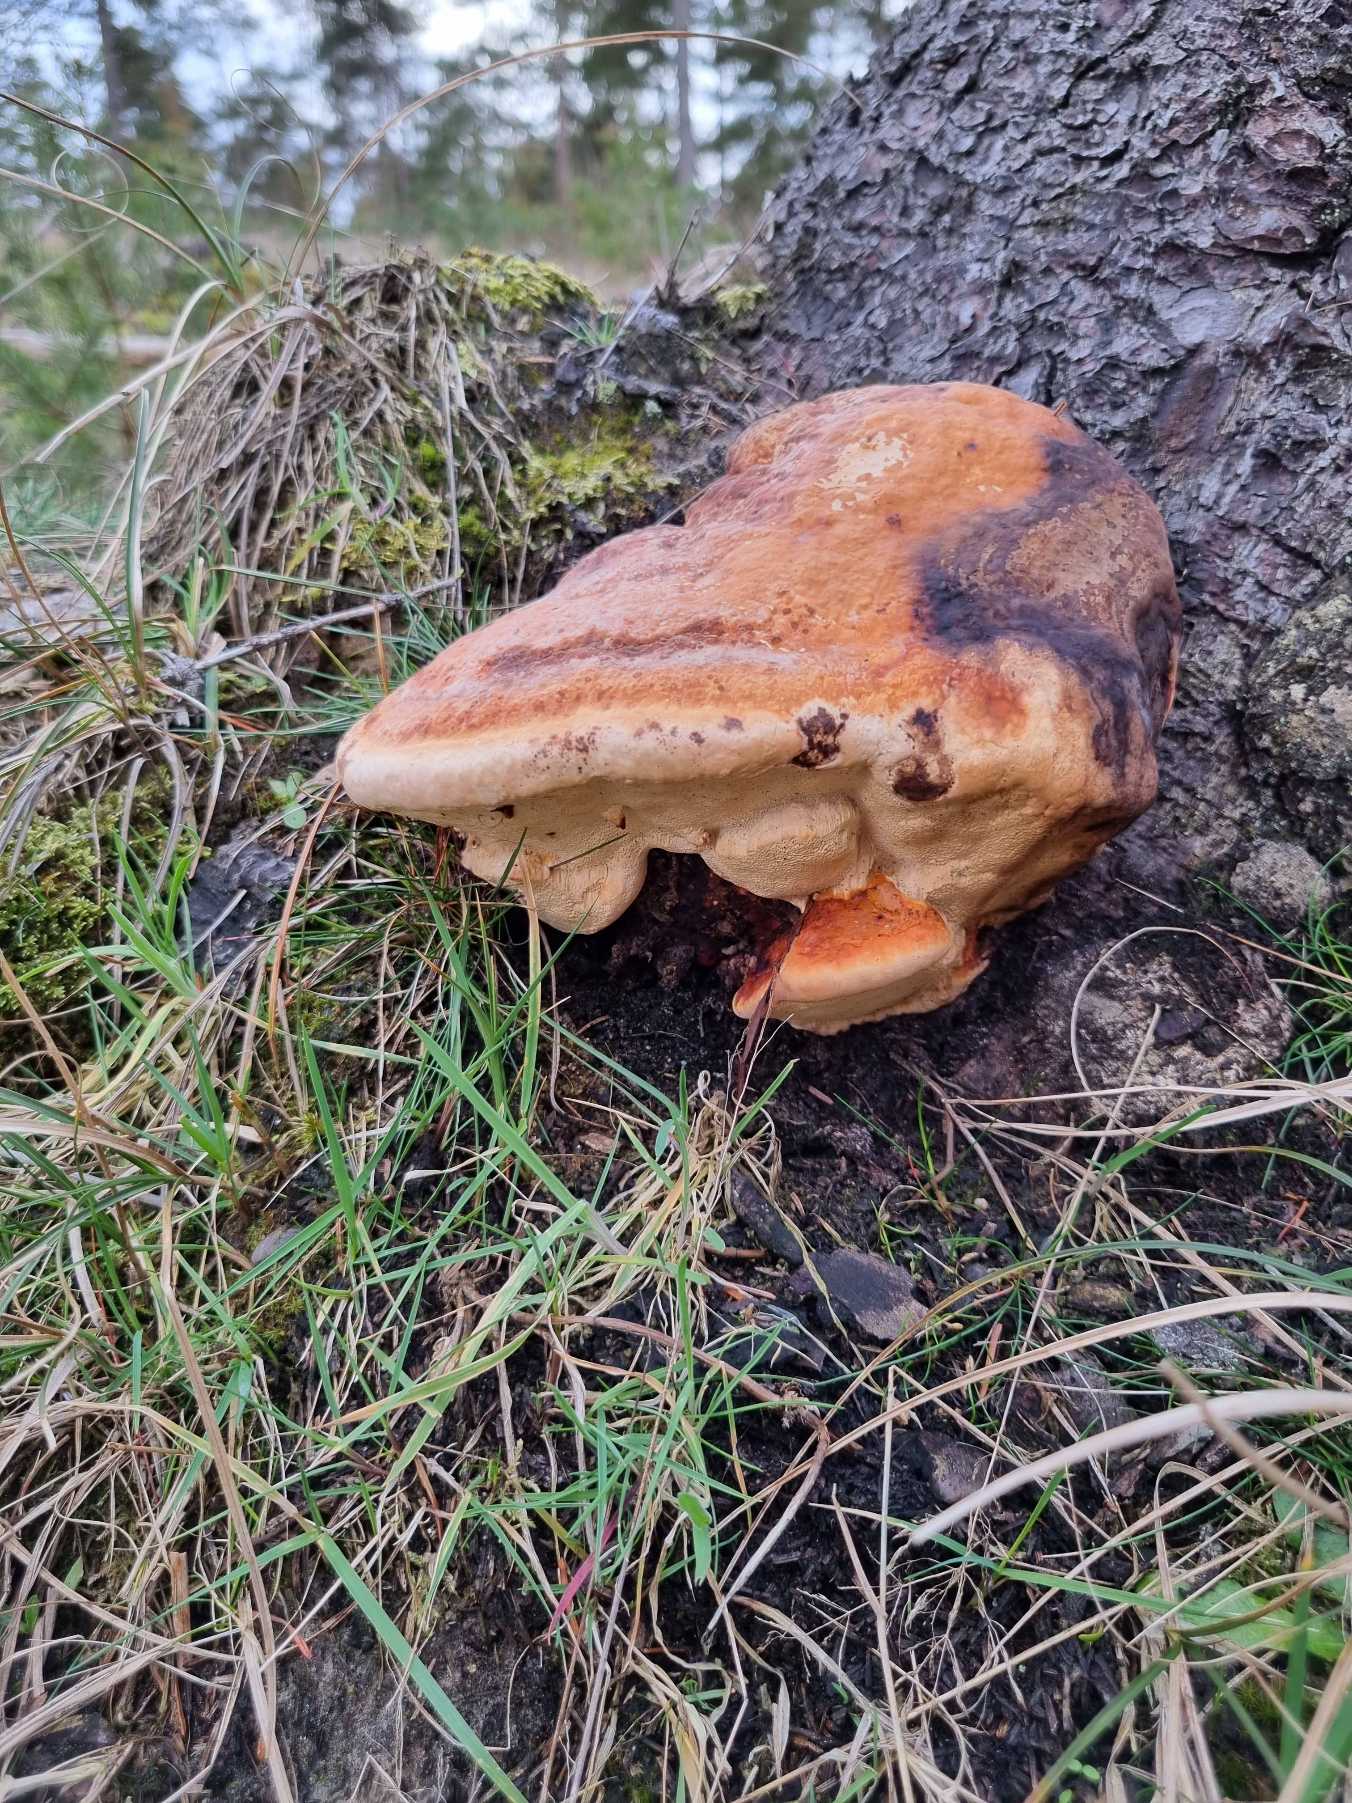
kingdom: Fungi
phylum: Basidiomycota
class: Agaricomycetes
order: Polyporales
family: Fomitopsidaceae
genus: Fomitopsis
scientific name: Fomitopsis pinicola
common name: Randbæltet hovporesvamp
